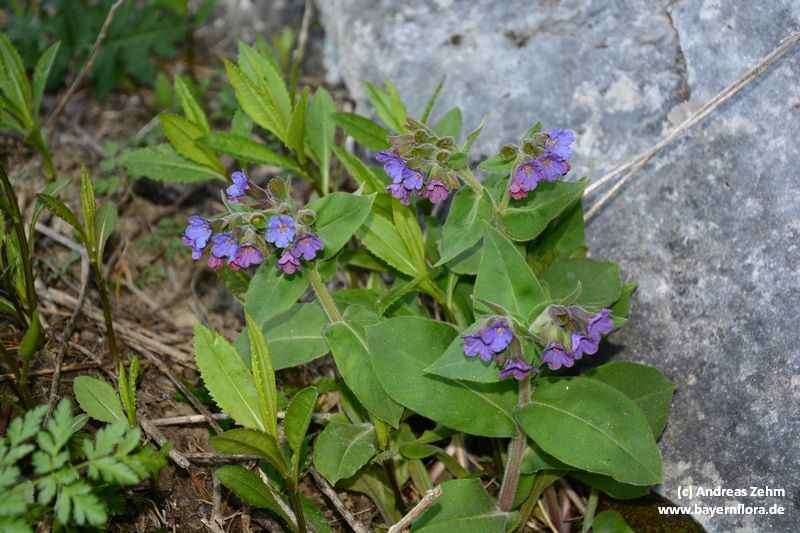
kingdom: Plantae
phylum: Tracheophyta
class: Magnoliopsida
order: Boraginales
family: Boraginaceae
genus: Pulmonaria
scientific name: Pulmonaria mollis
